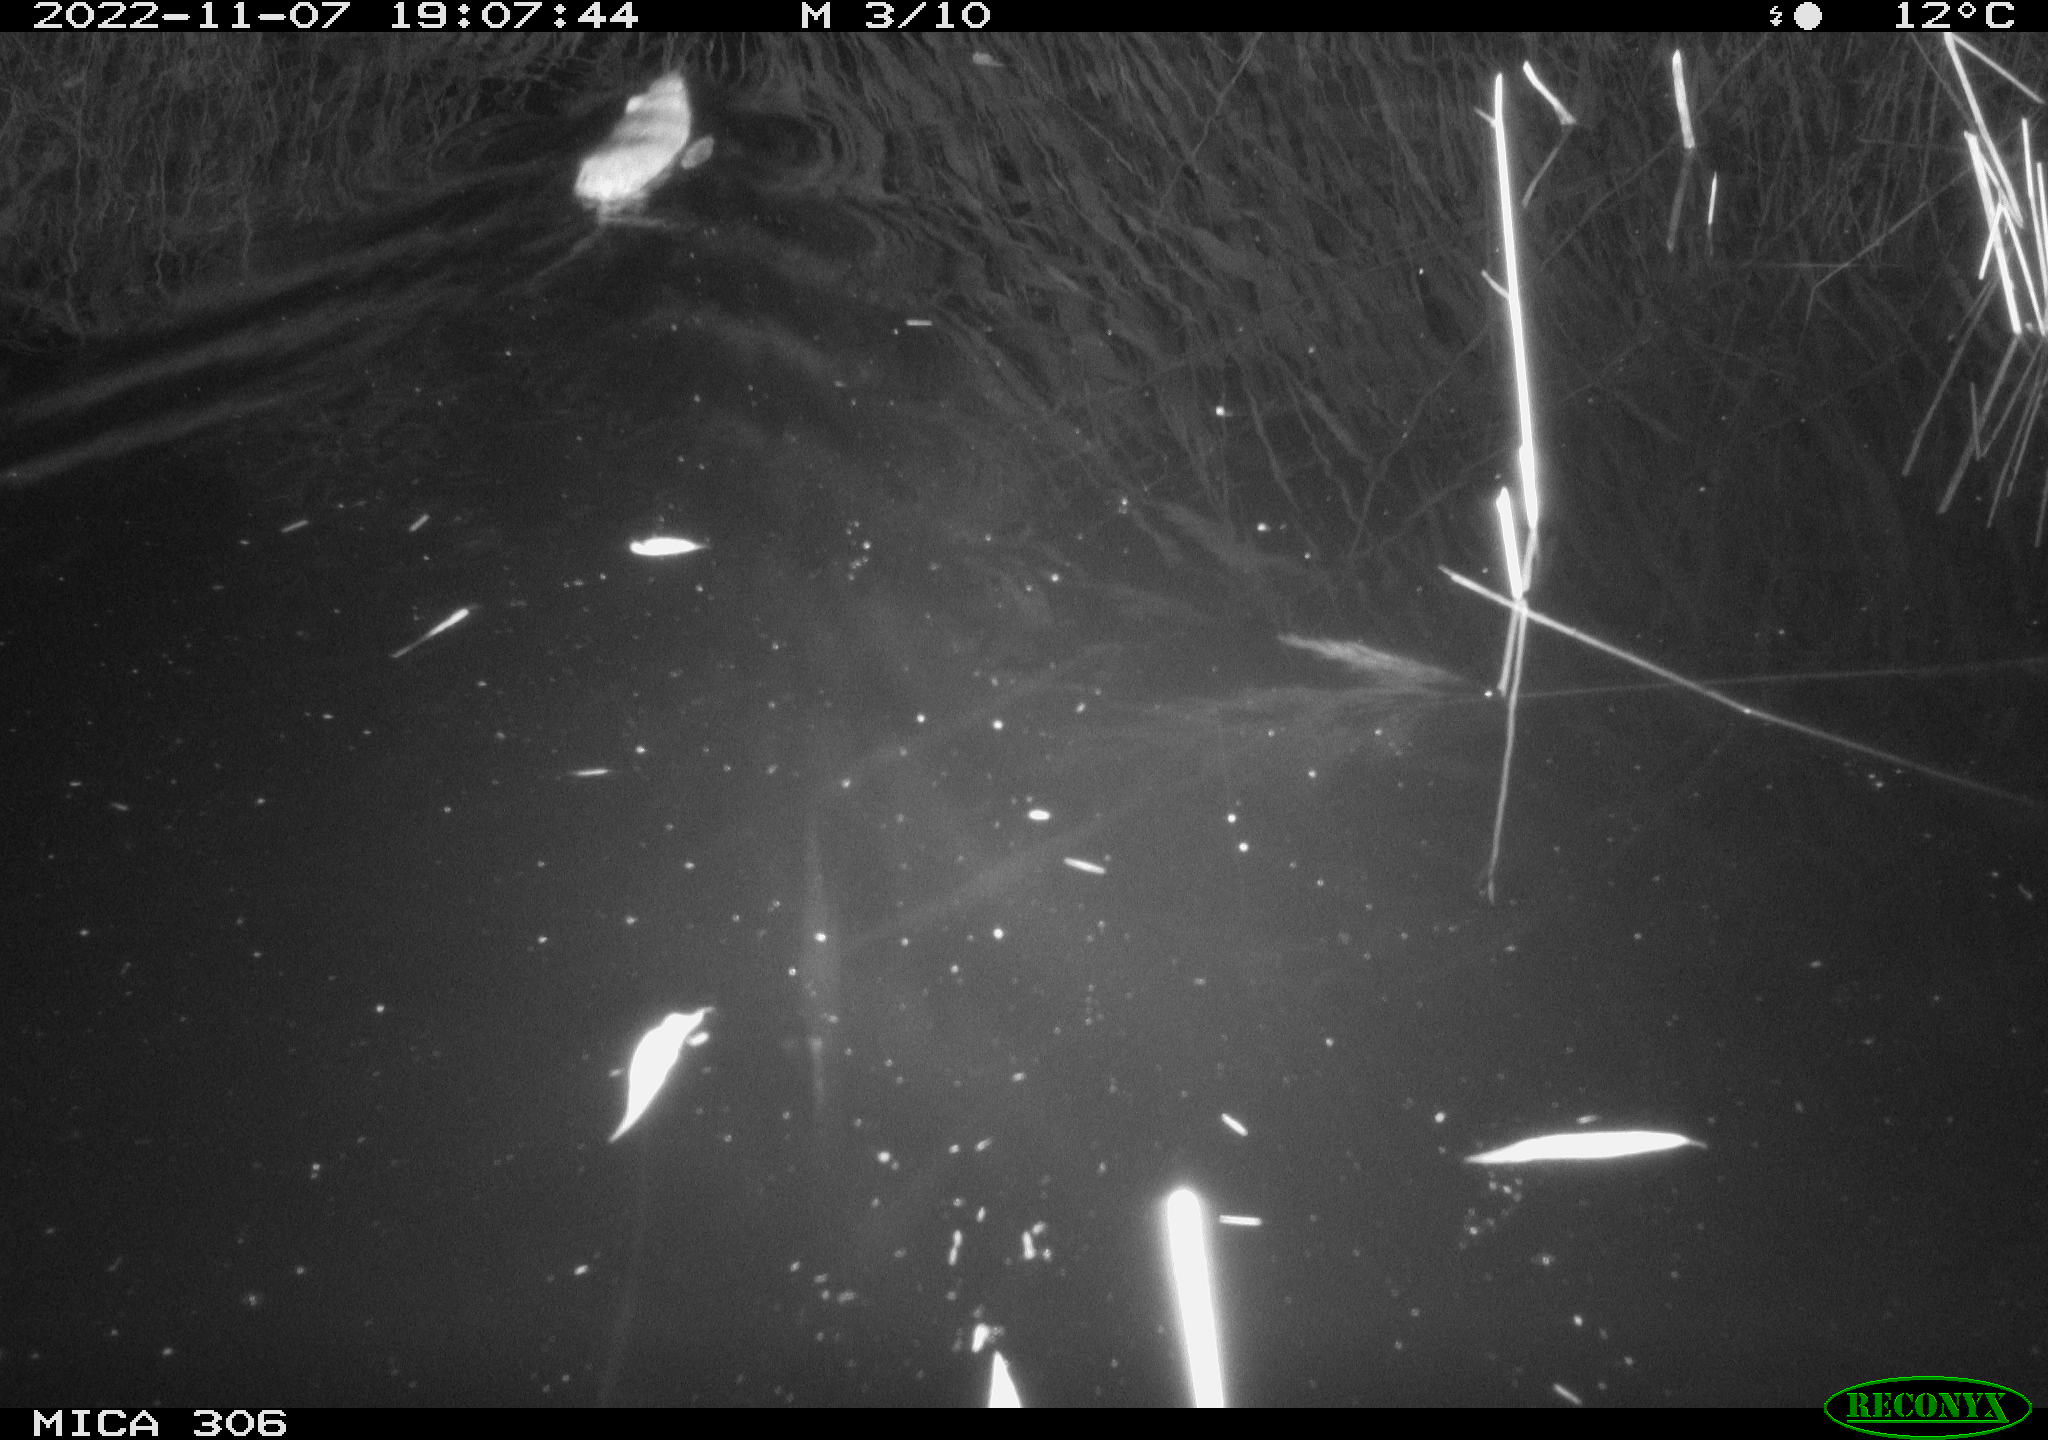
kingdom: Animalia
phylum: Chordata
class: Mammalia
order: Rodentia
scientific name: Rodentia
